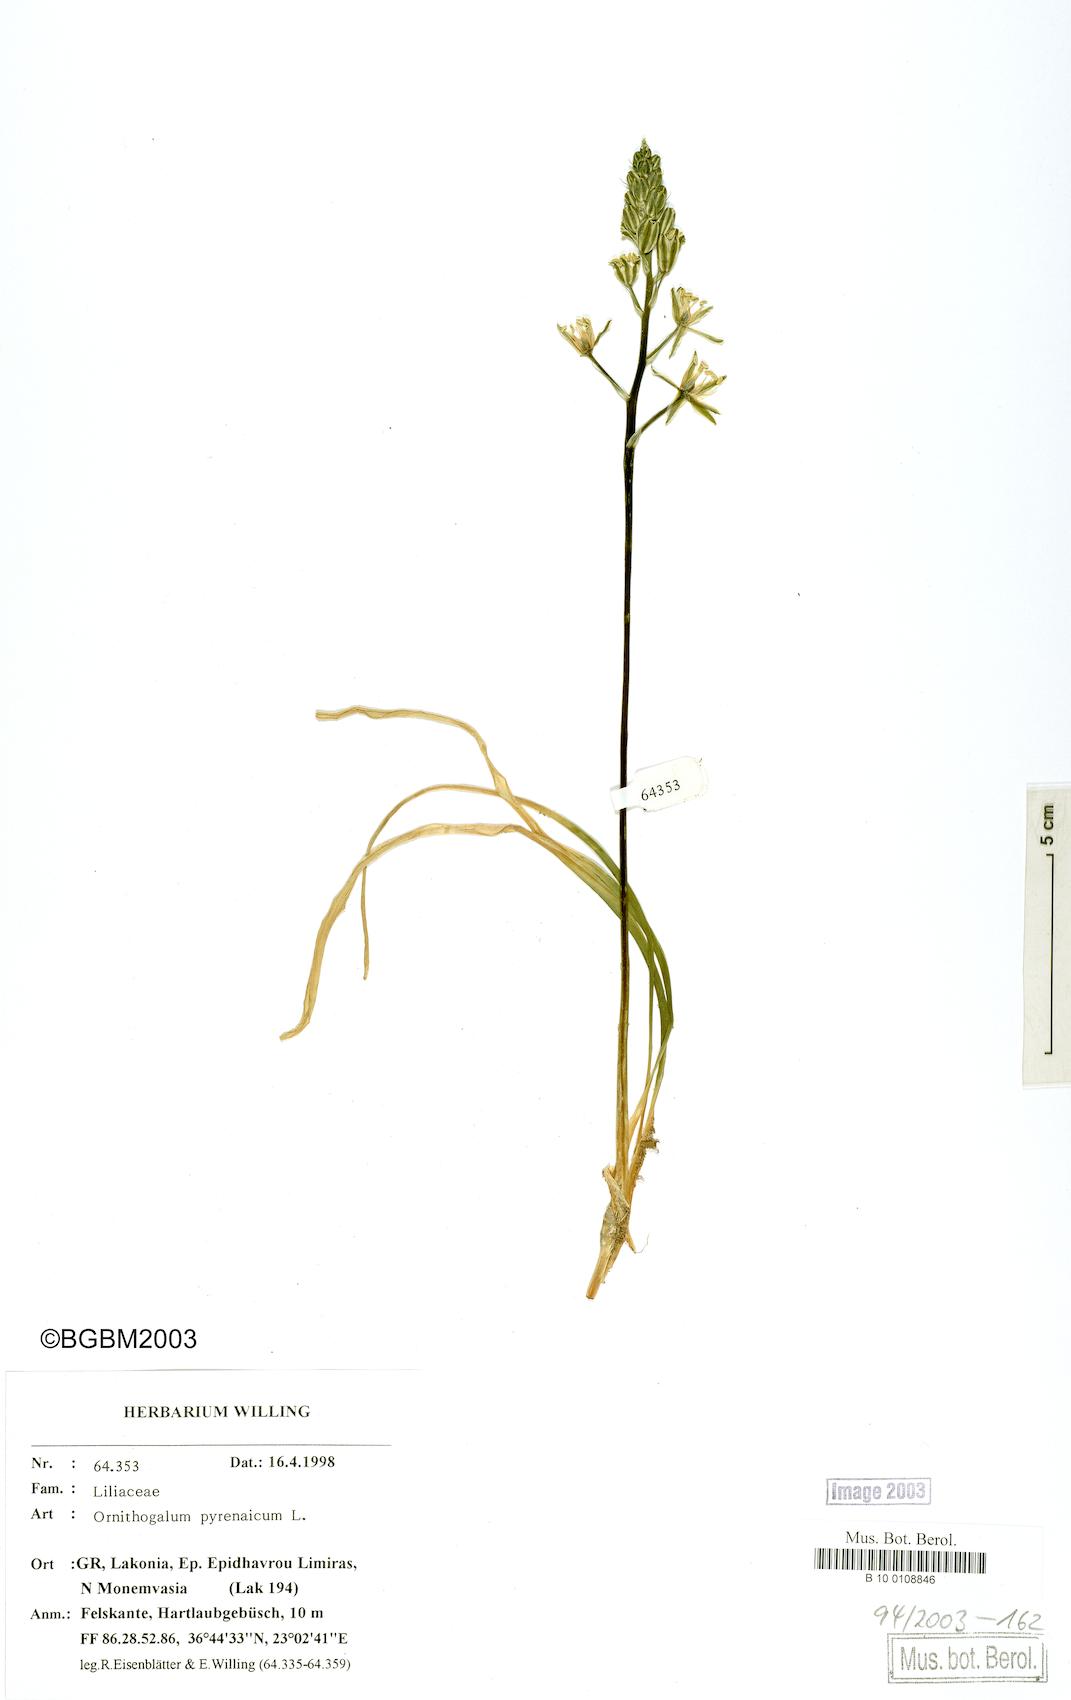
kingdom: Plantae
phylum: Tracheophyta
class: Liliopsida
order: Asparagales
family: Asparagaceae
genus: Ornithogalum
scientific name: Ornithogalum pyrenaicum
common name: Spiked star-of-bethlehem
